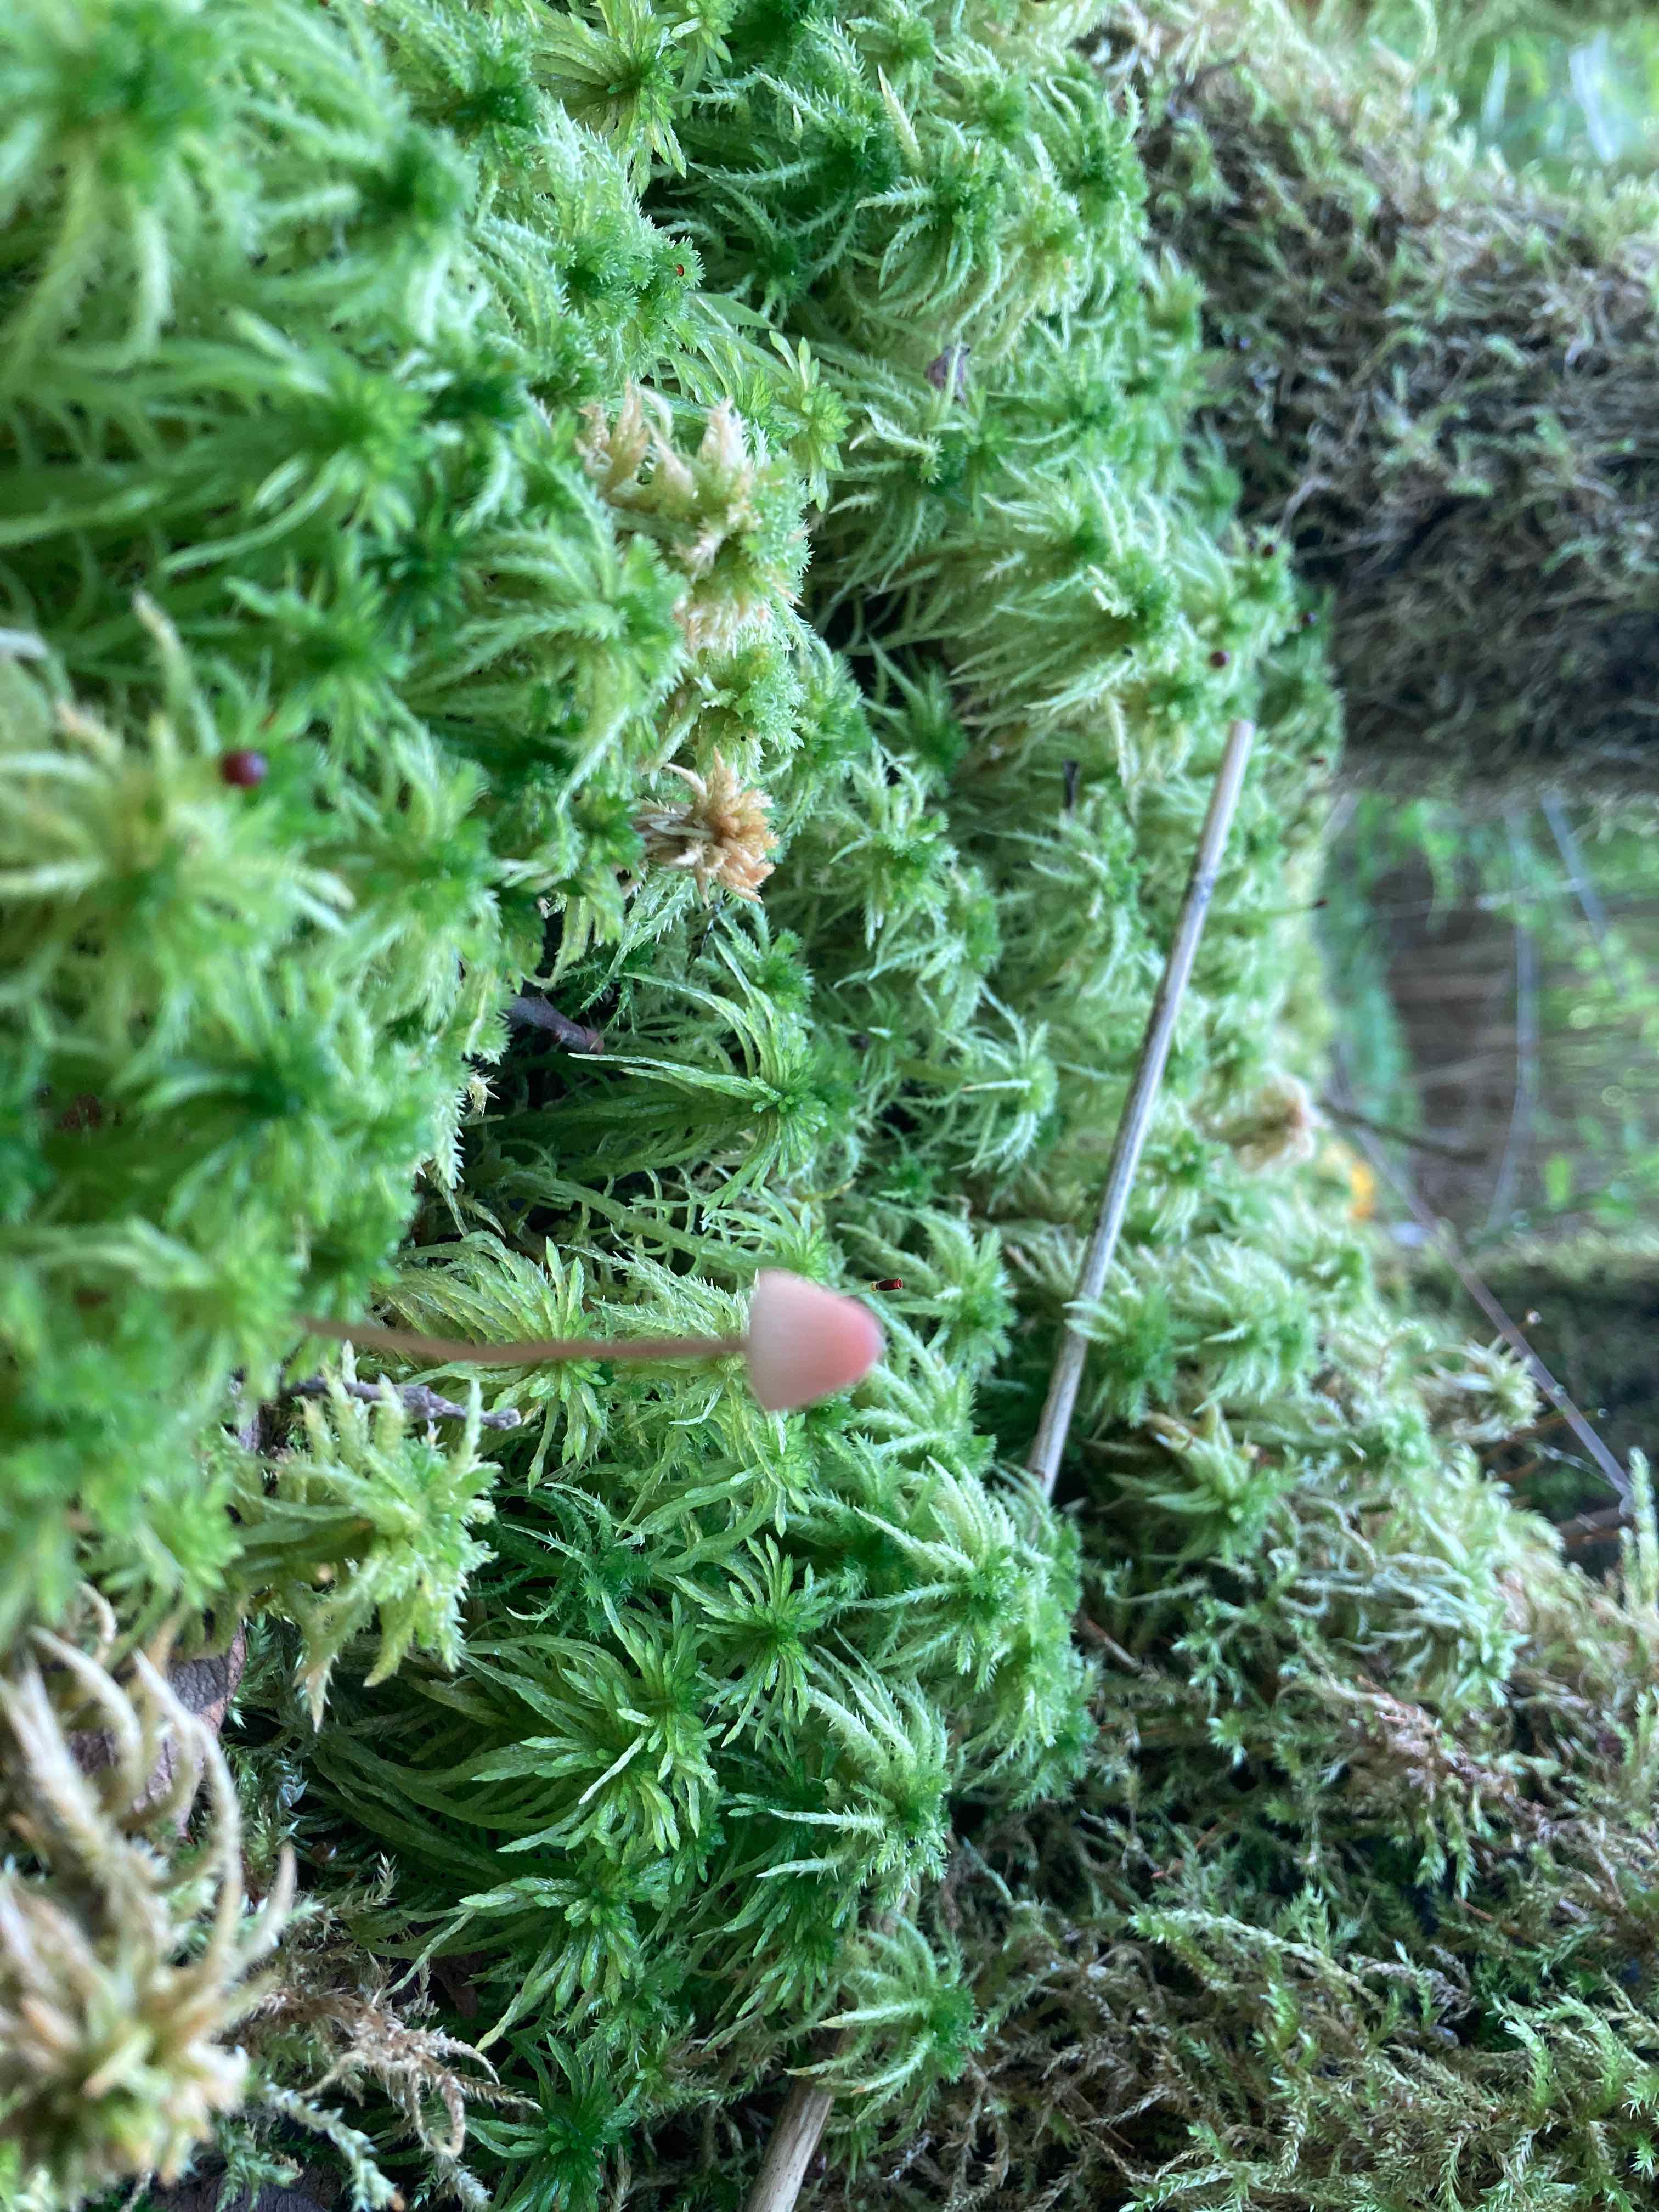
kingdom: Fungi
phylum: Basidiomycota
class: Agaricomycetes
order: Agaricales
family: Mycenaceae
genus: Mycena
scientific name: Mycena sanguinolenta
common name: rødmælket huesvamp
